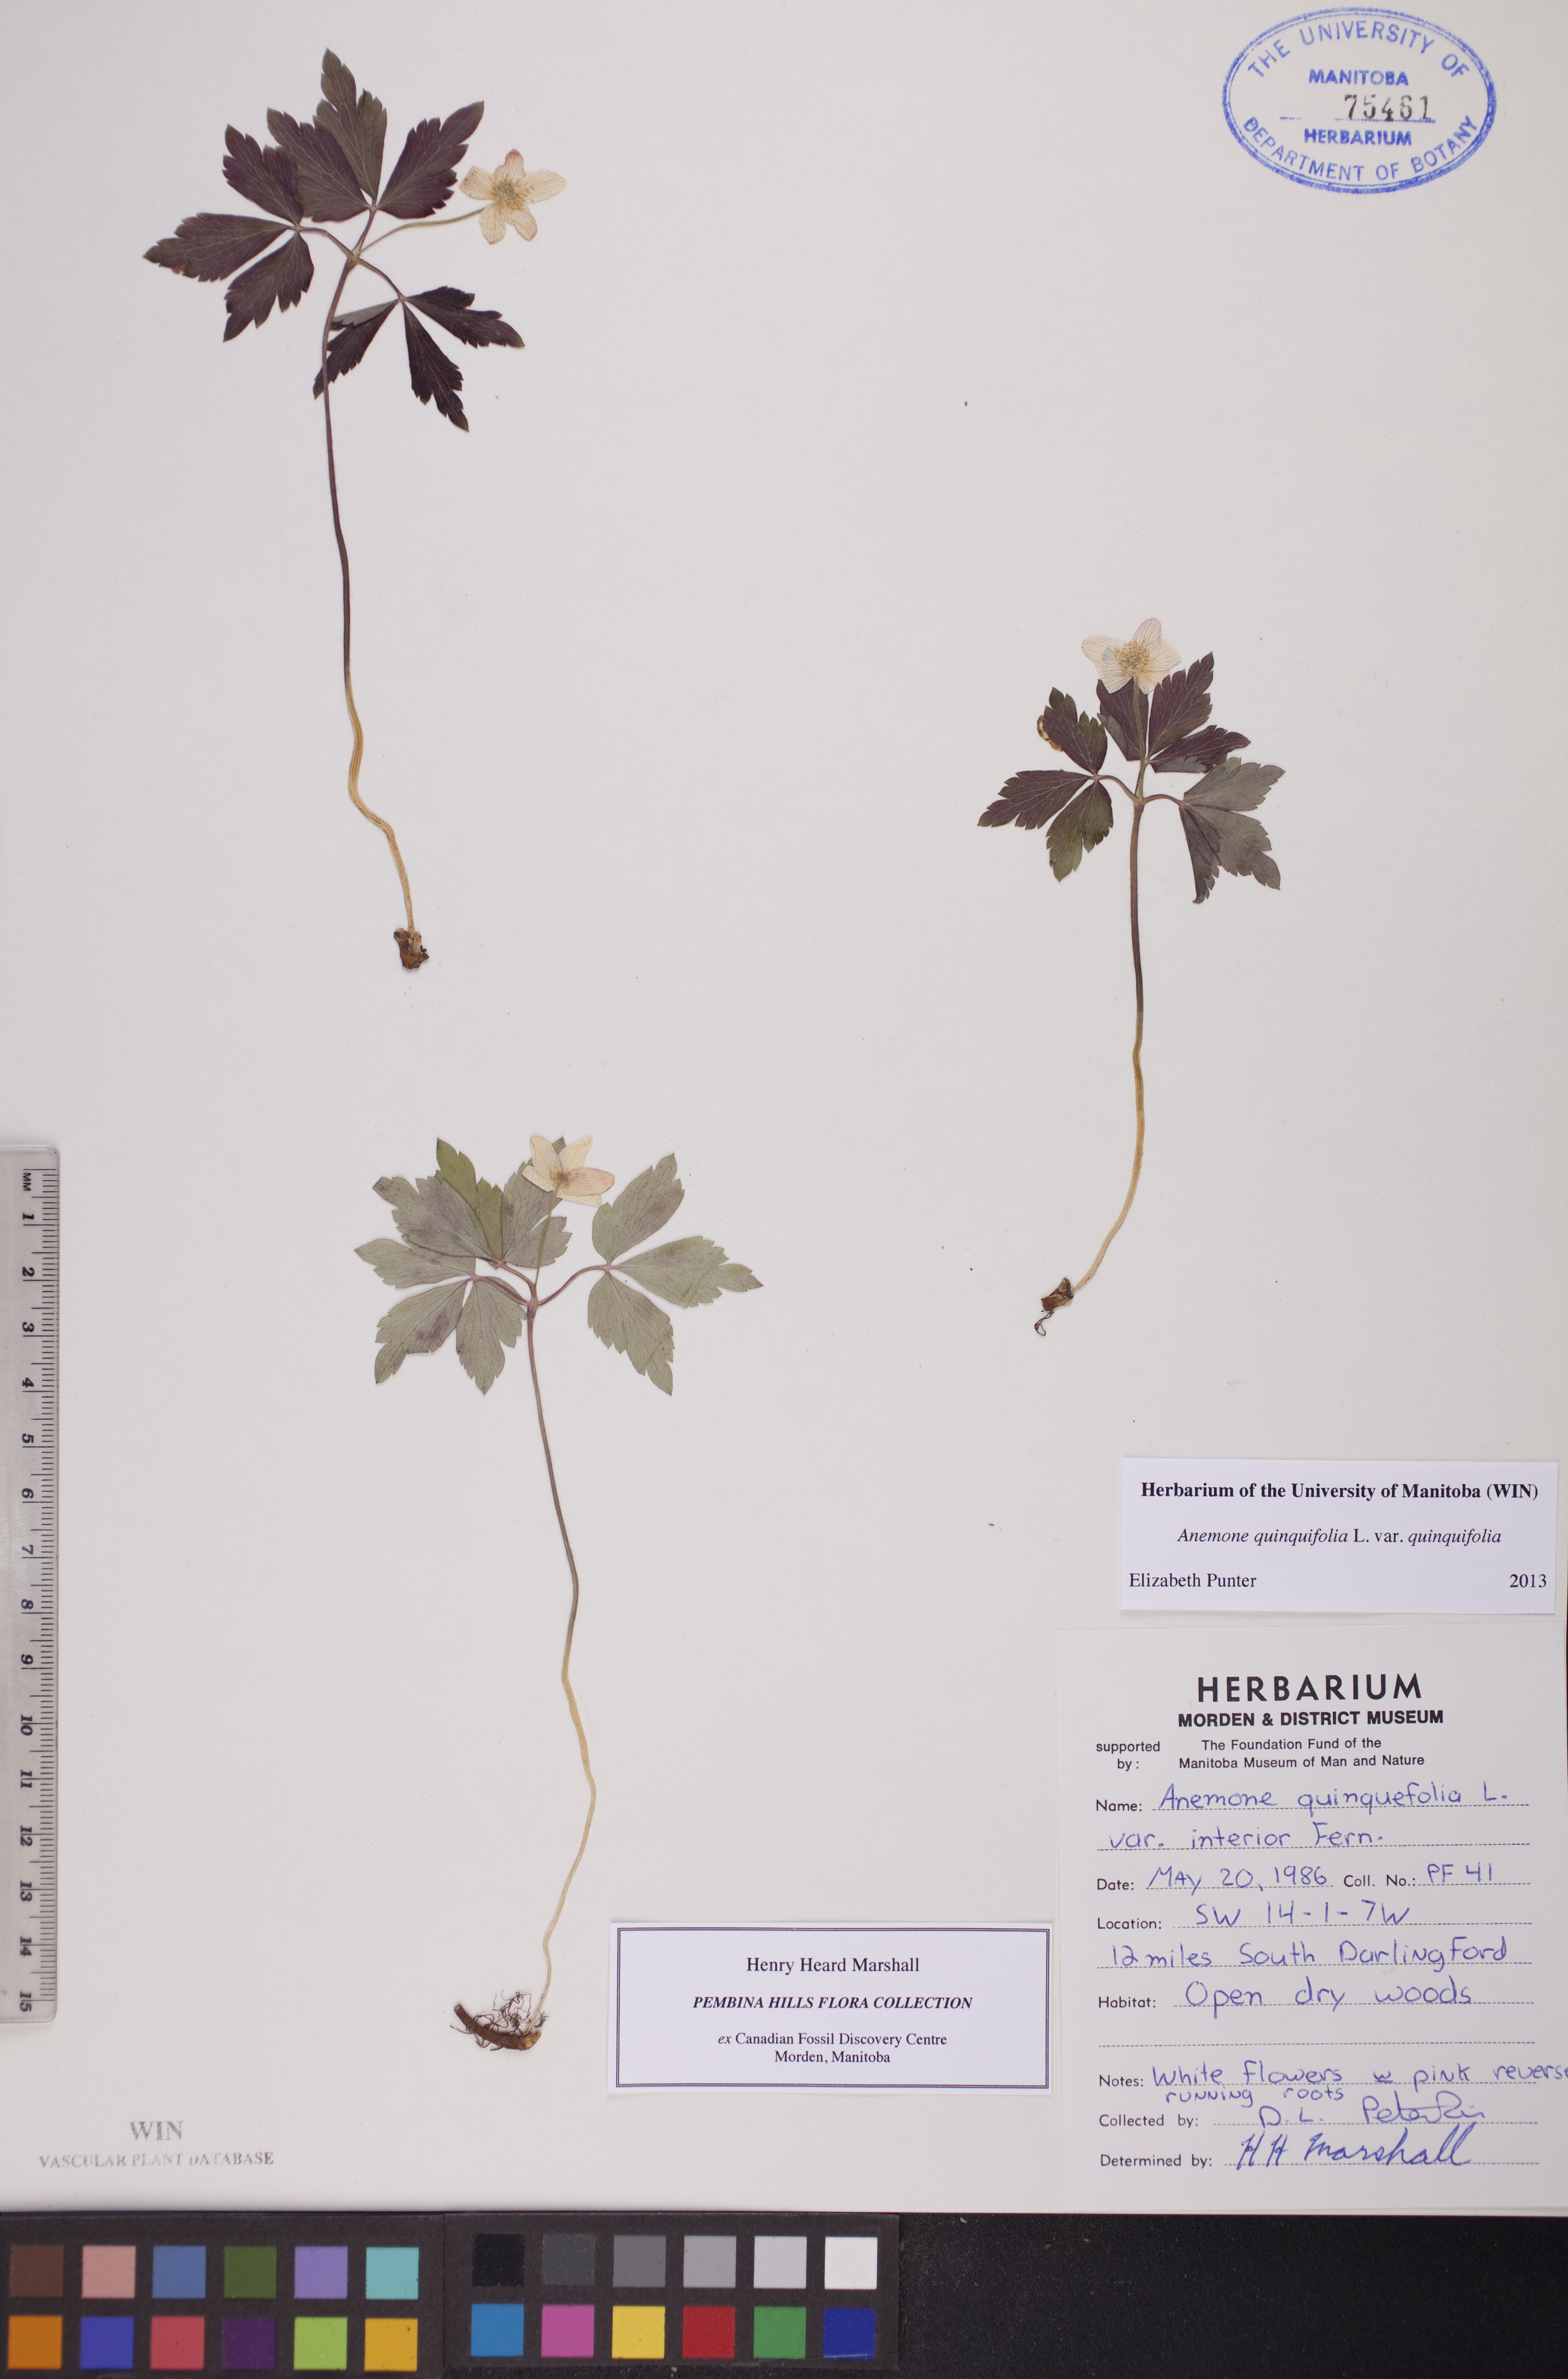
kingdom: Plantae
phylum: Tracheophyta
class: Magnoliopsida
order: Ranunculales
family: Ranunculaceae
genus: Anemone
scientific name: Anemone quinquefolia
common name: Wood anemone
